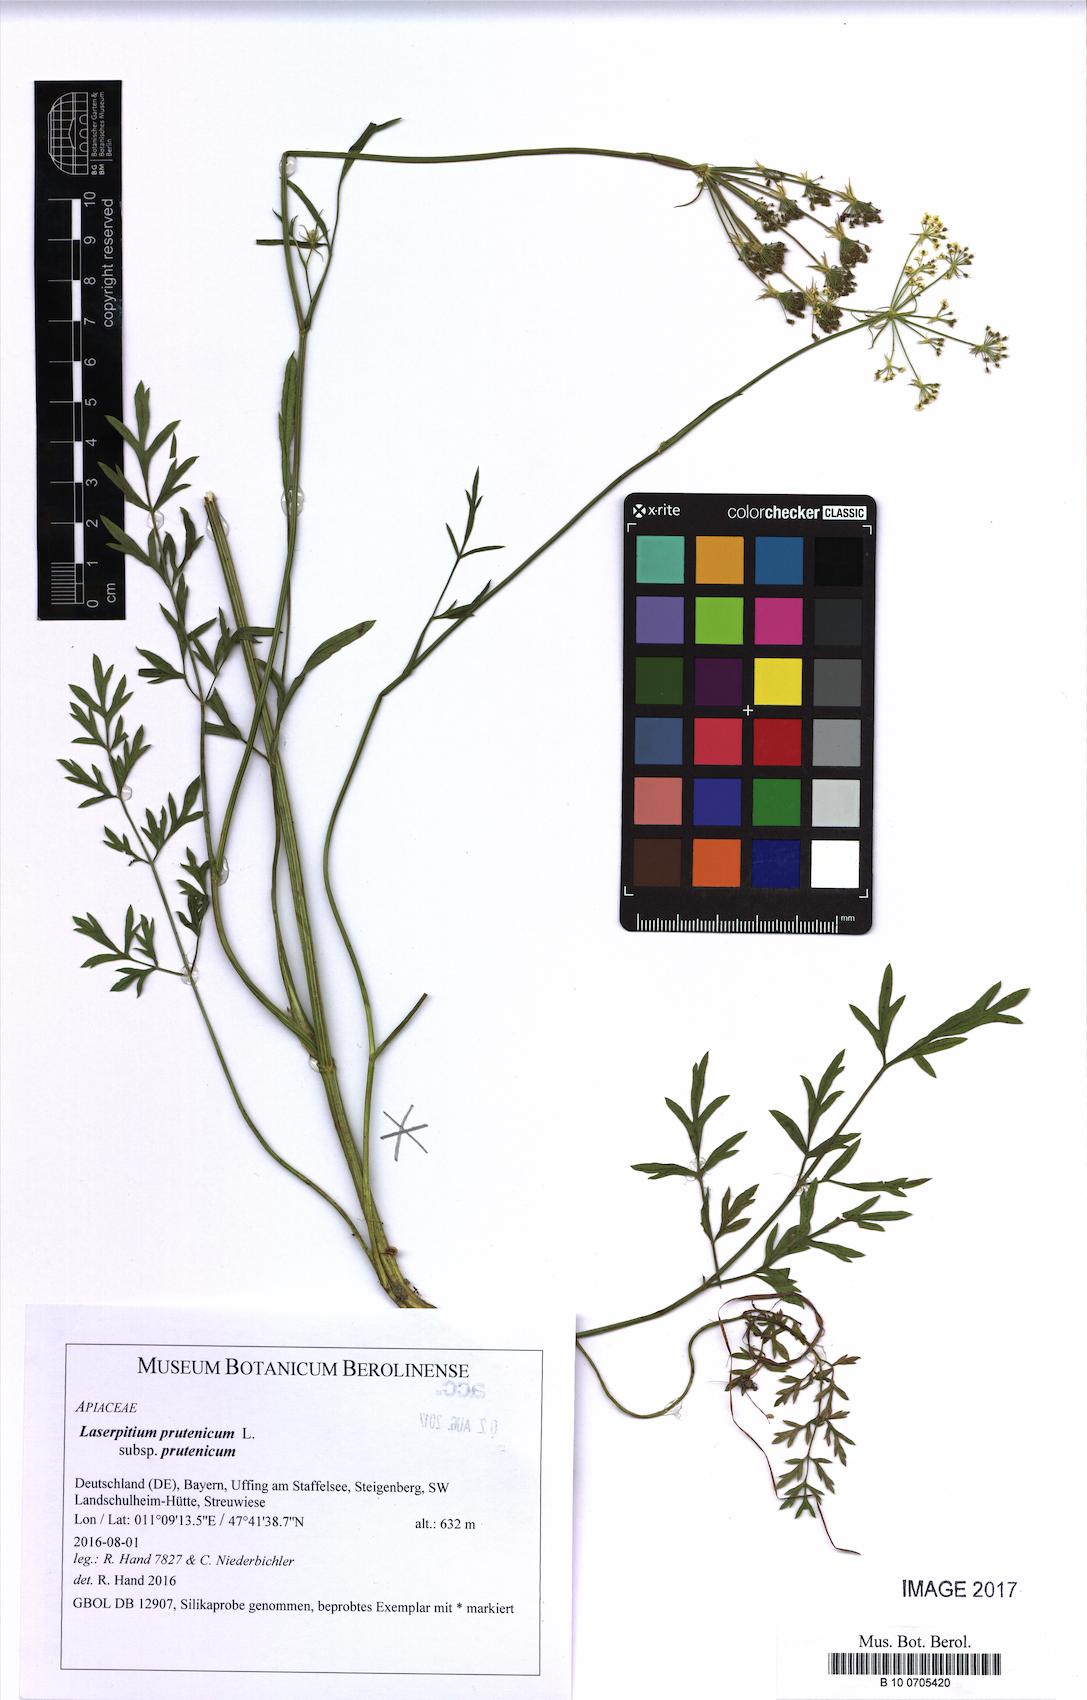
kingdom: Plantae
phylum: Tracheophyta
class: Magnoliopsida
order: Apiales
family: Apiaceae
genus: Silphiodaucus
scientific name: Silphiodaucus prutenicus
